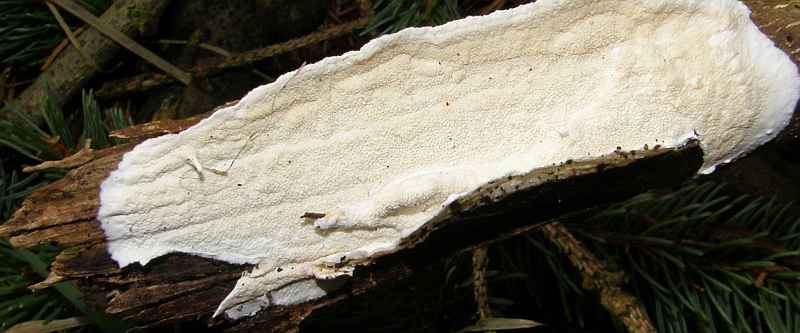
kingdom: Fungi
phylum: Basidiomycota
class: Agaricomycetes
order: Polyporales
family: Irpicaceae
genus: Byssomerulius
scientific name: Byssomerulius corium
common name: læder-åresvamp
